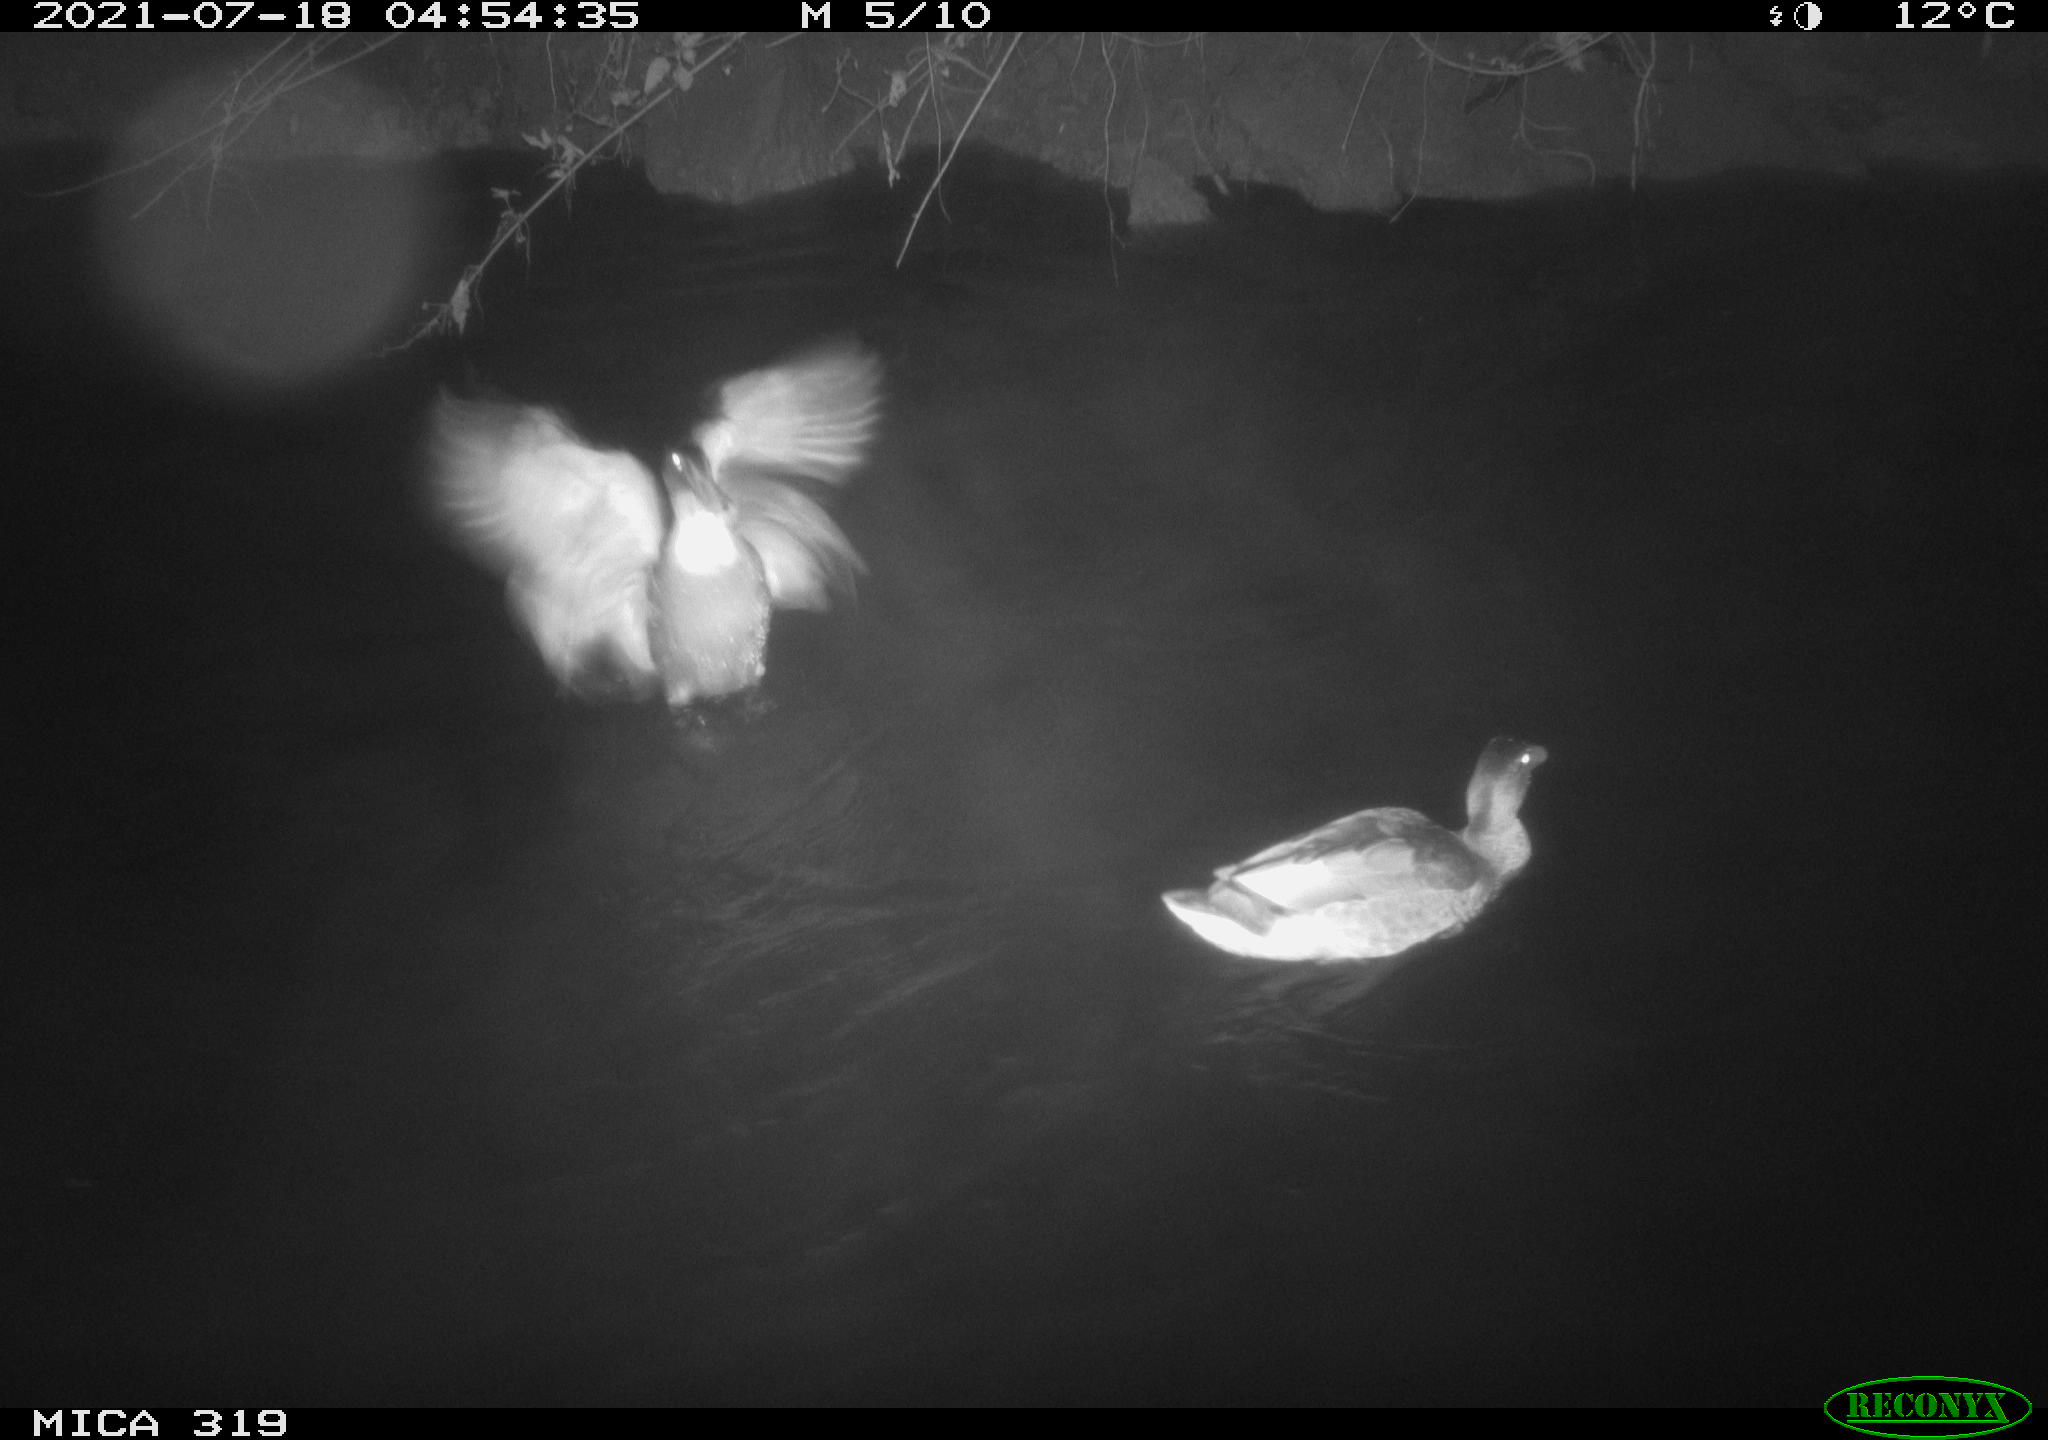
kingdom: Animalia
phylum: Chordata
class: Aves
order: Anseriformes
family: Anatidae
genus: Mareca
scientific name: Mareca strepera
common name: Gadwall
